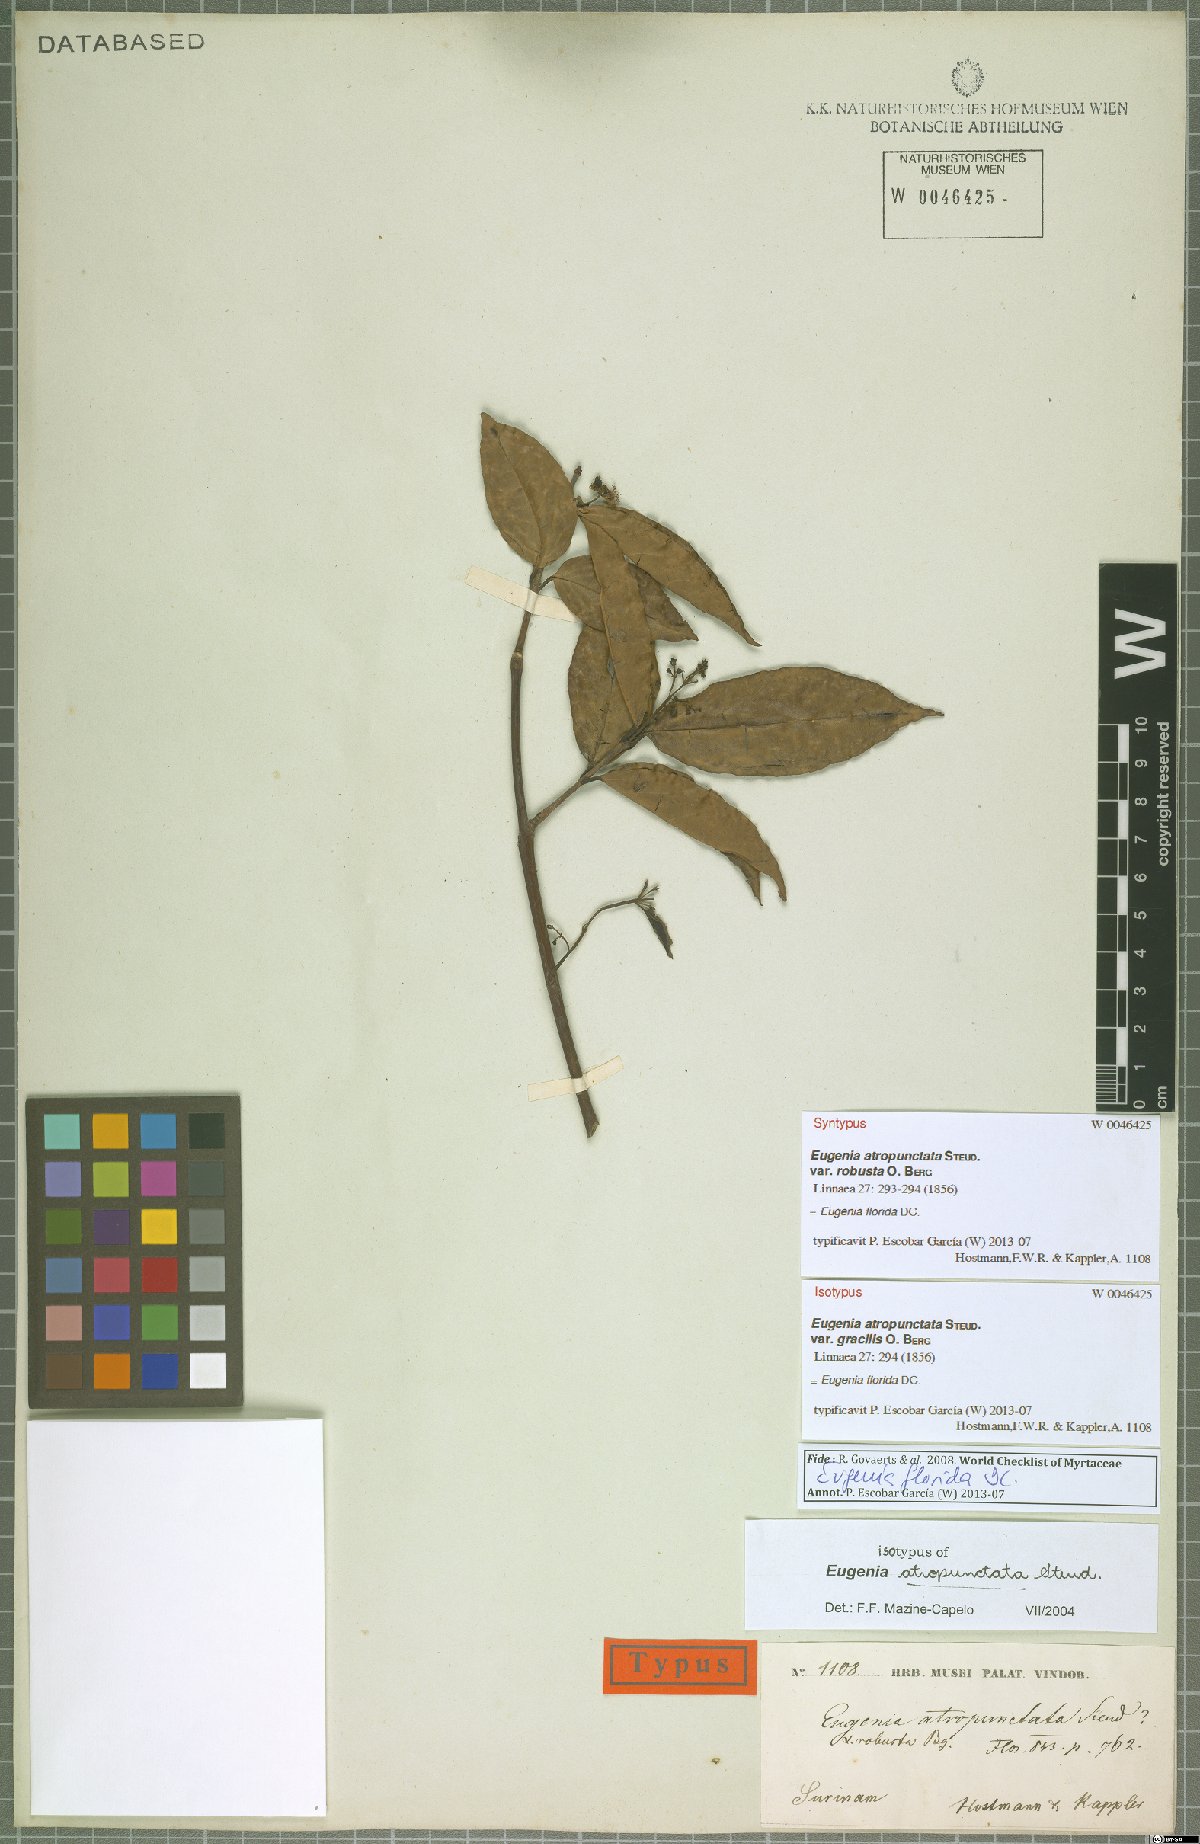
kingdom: Plantae
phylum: Tracheophyta
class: Magnoliopsida
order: Myrtales
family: Myrtaceae
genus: Eugenia
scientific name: Eugenia florida
